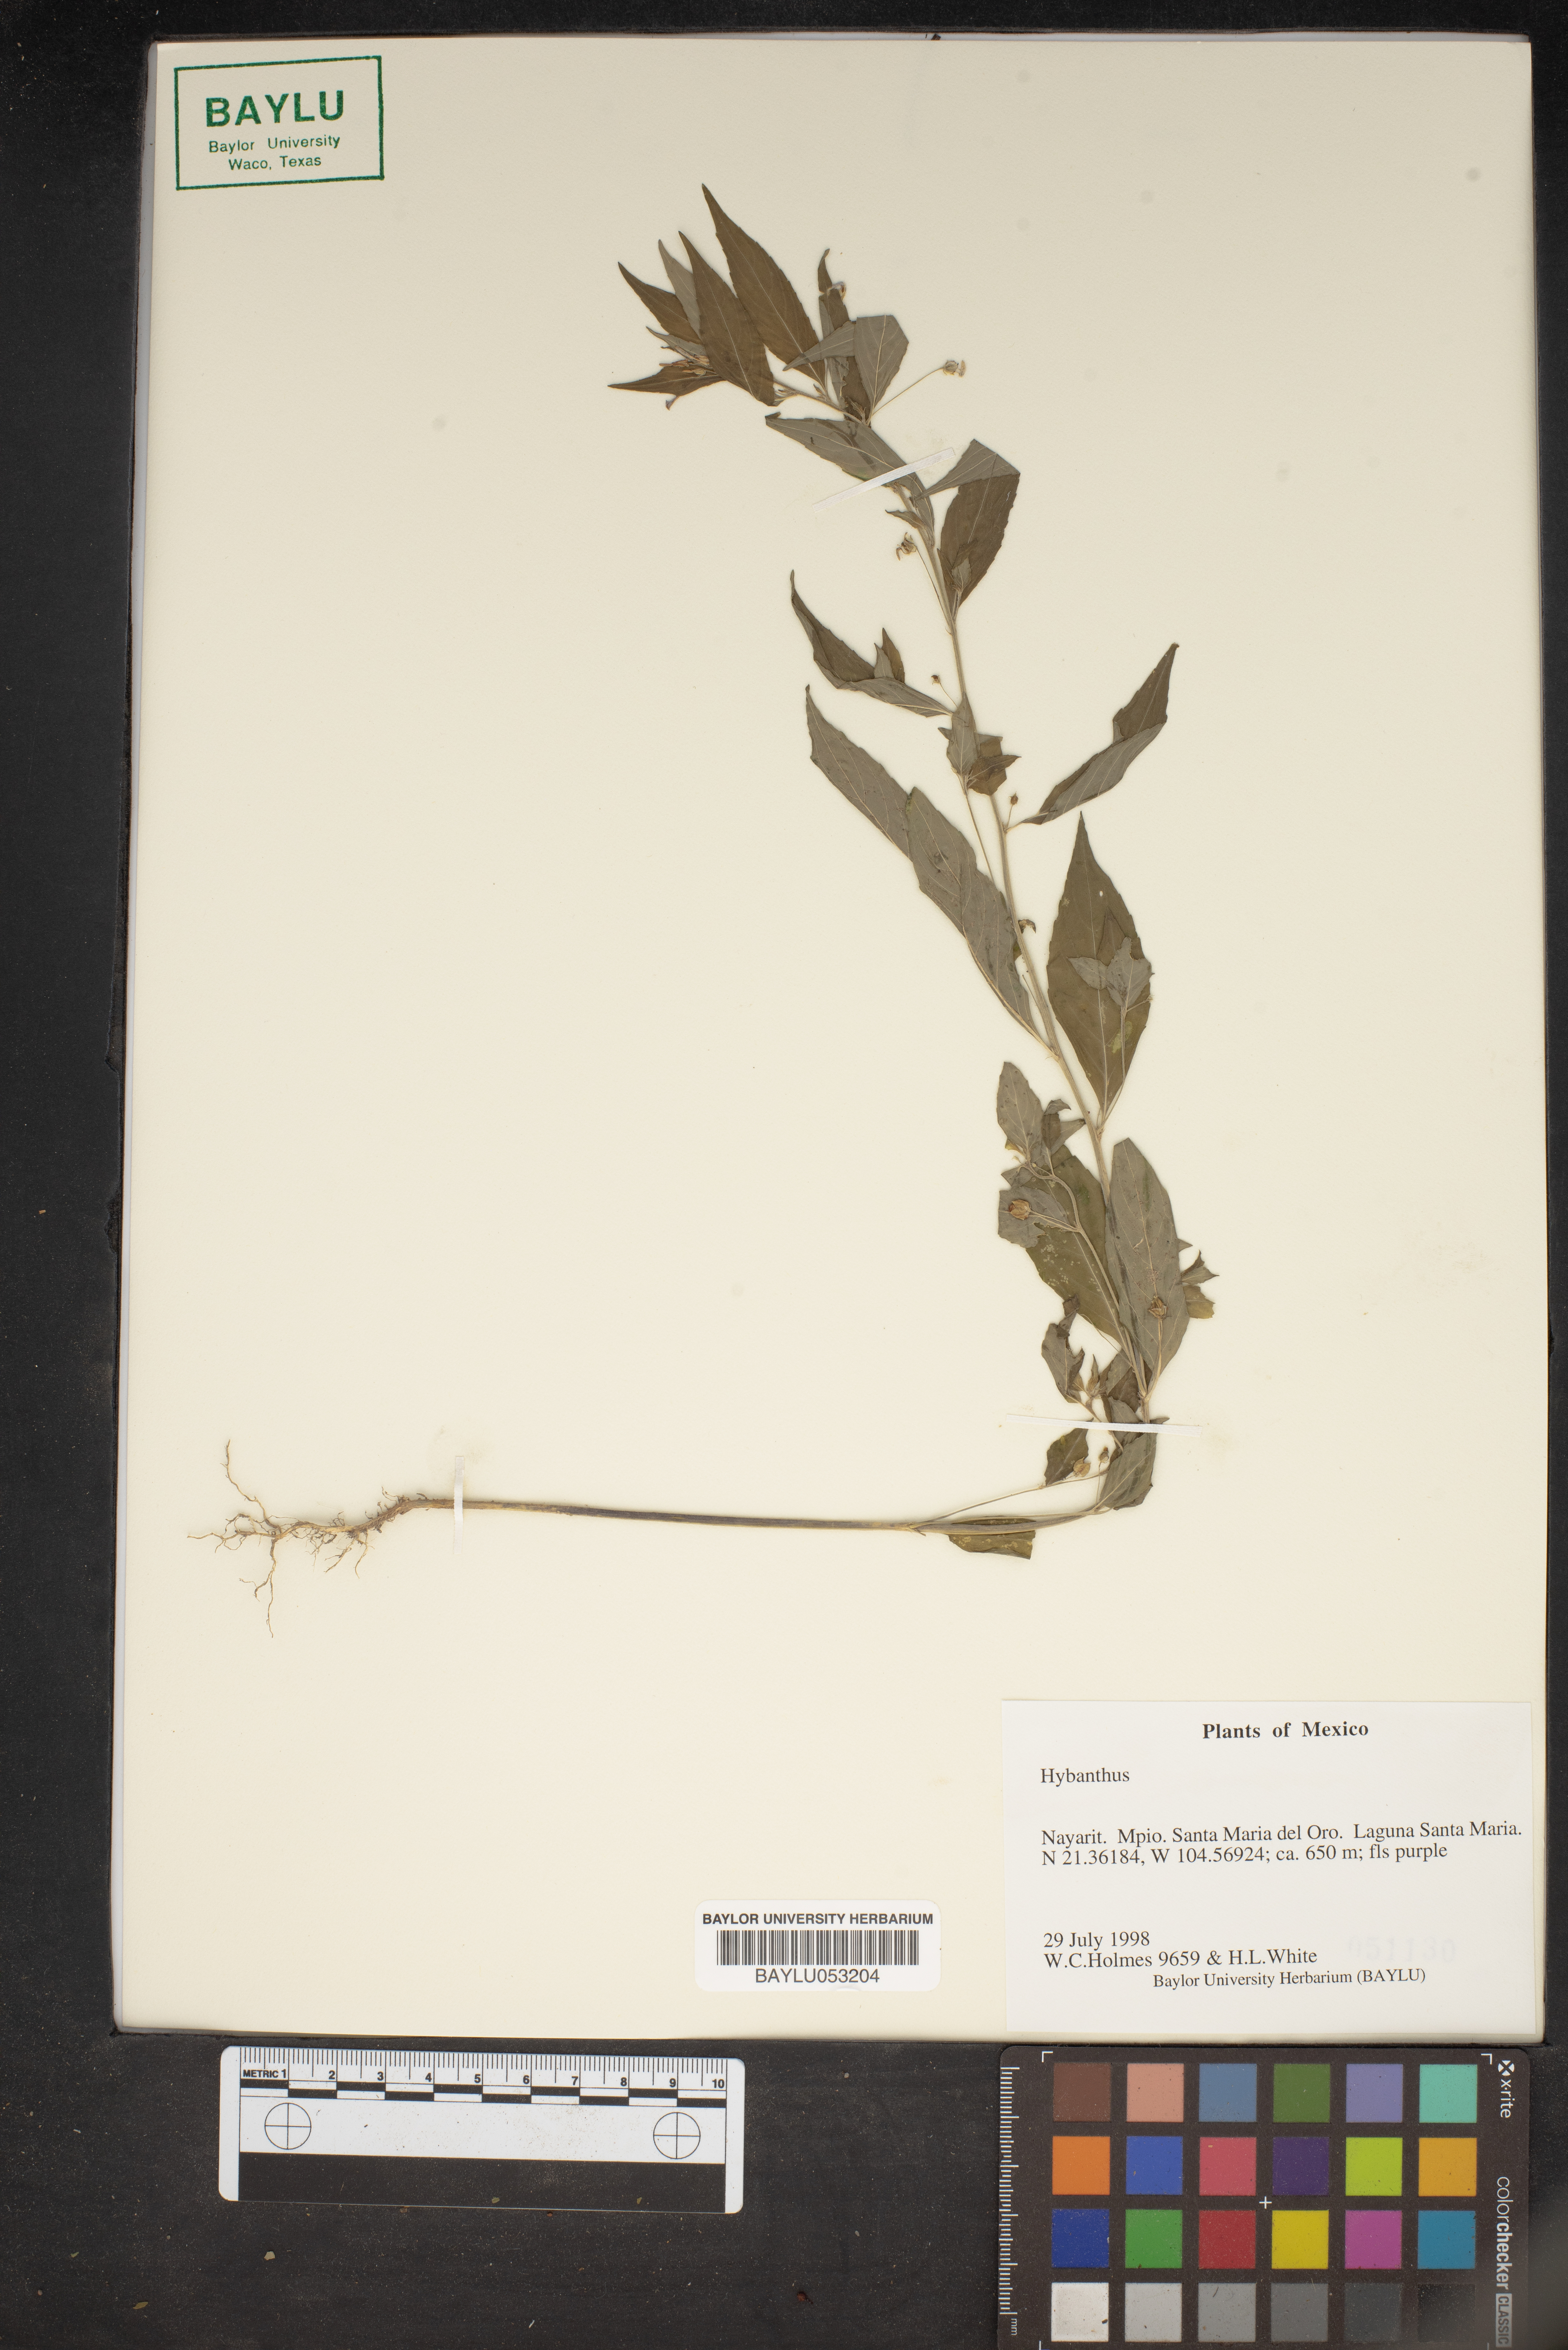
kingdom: Plantae
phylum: Tracheophyta
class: Magnoliopsida
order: Malpighiales
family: Violaceae
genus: Hybanthus
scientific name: Hybanthus
